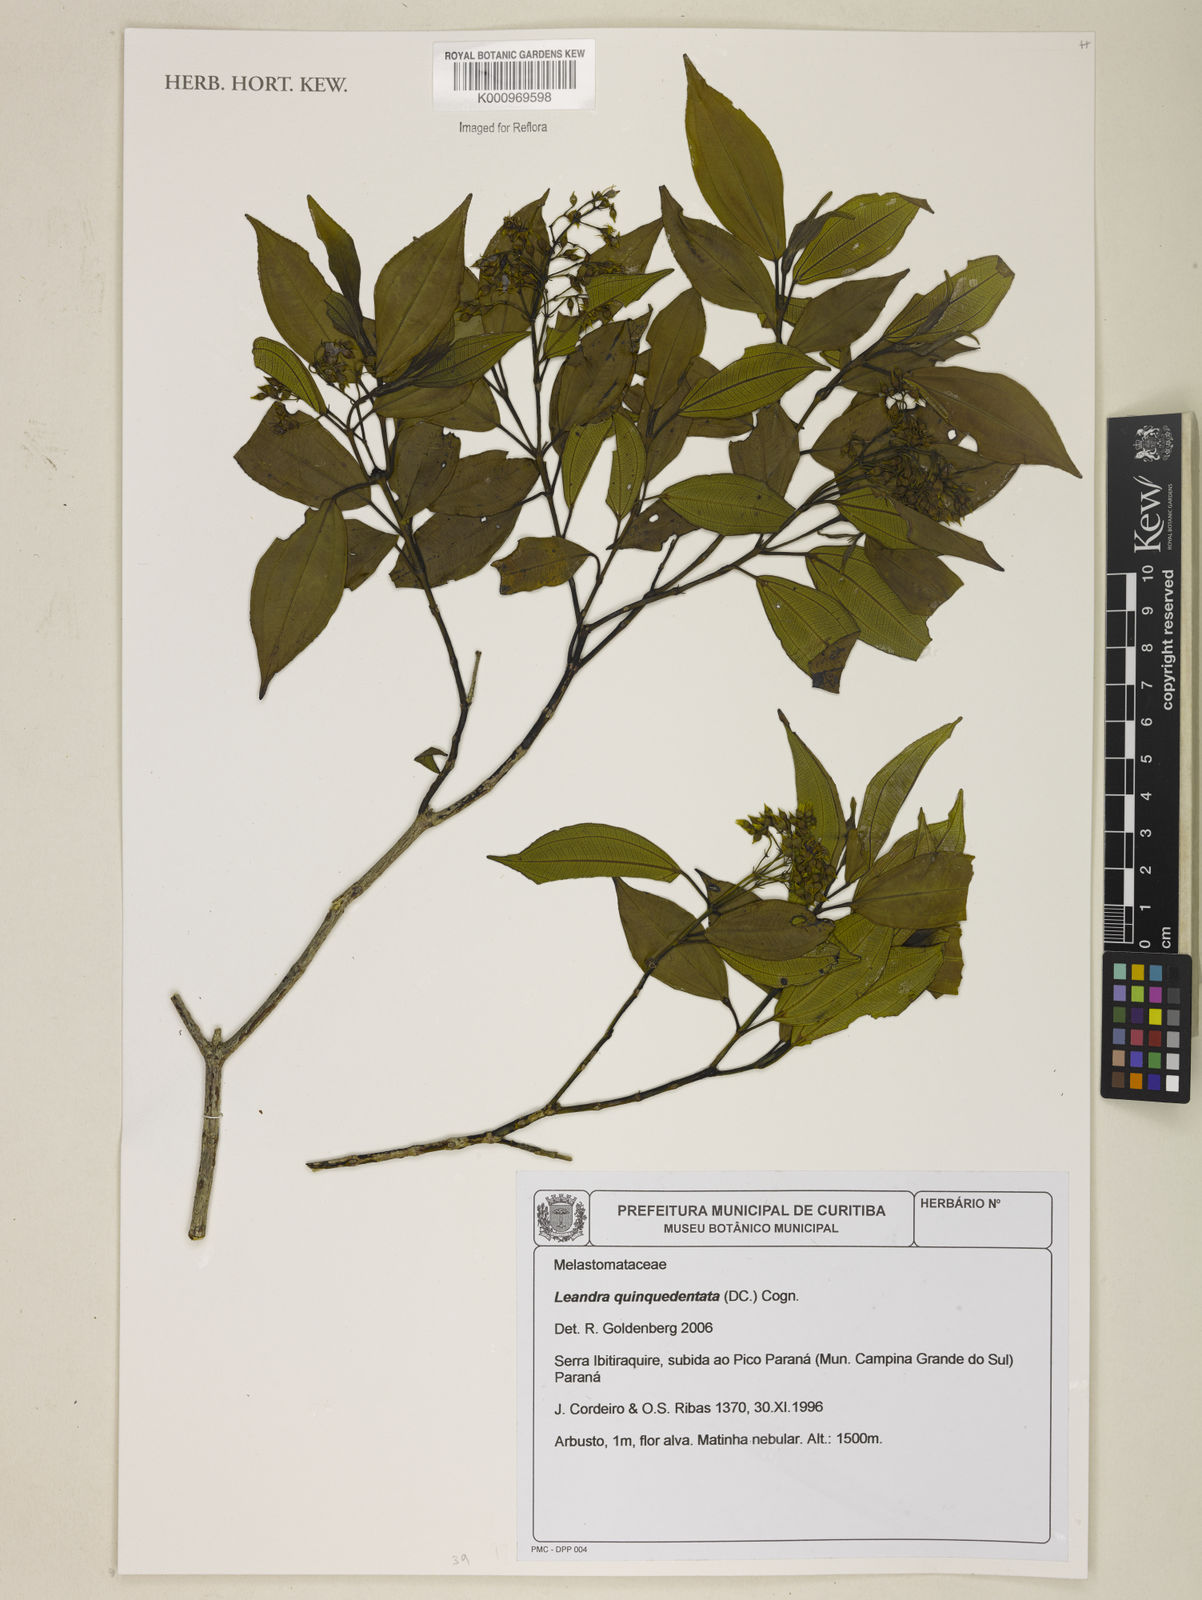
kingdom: Plantae
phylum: Tracheophyta
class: Magnoliopsida
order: Myrtales
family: Melastomataceae
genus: Miconia
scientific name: Miconia quinquedentata
